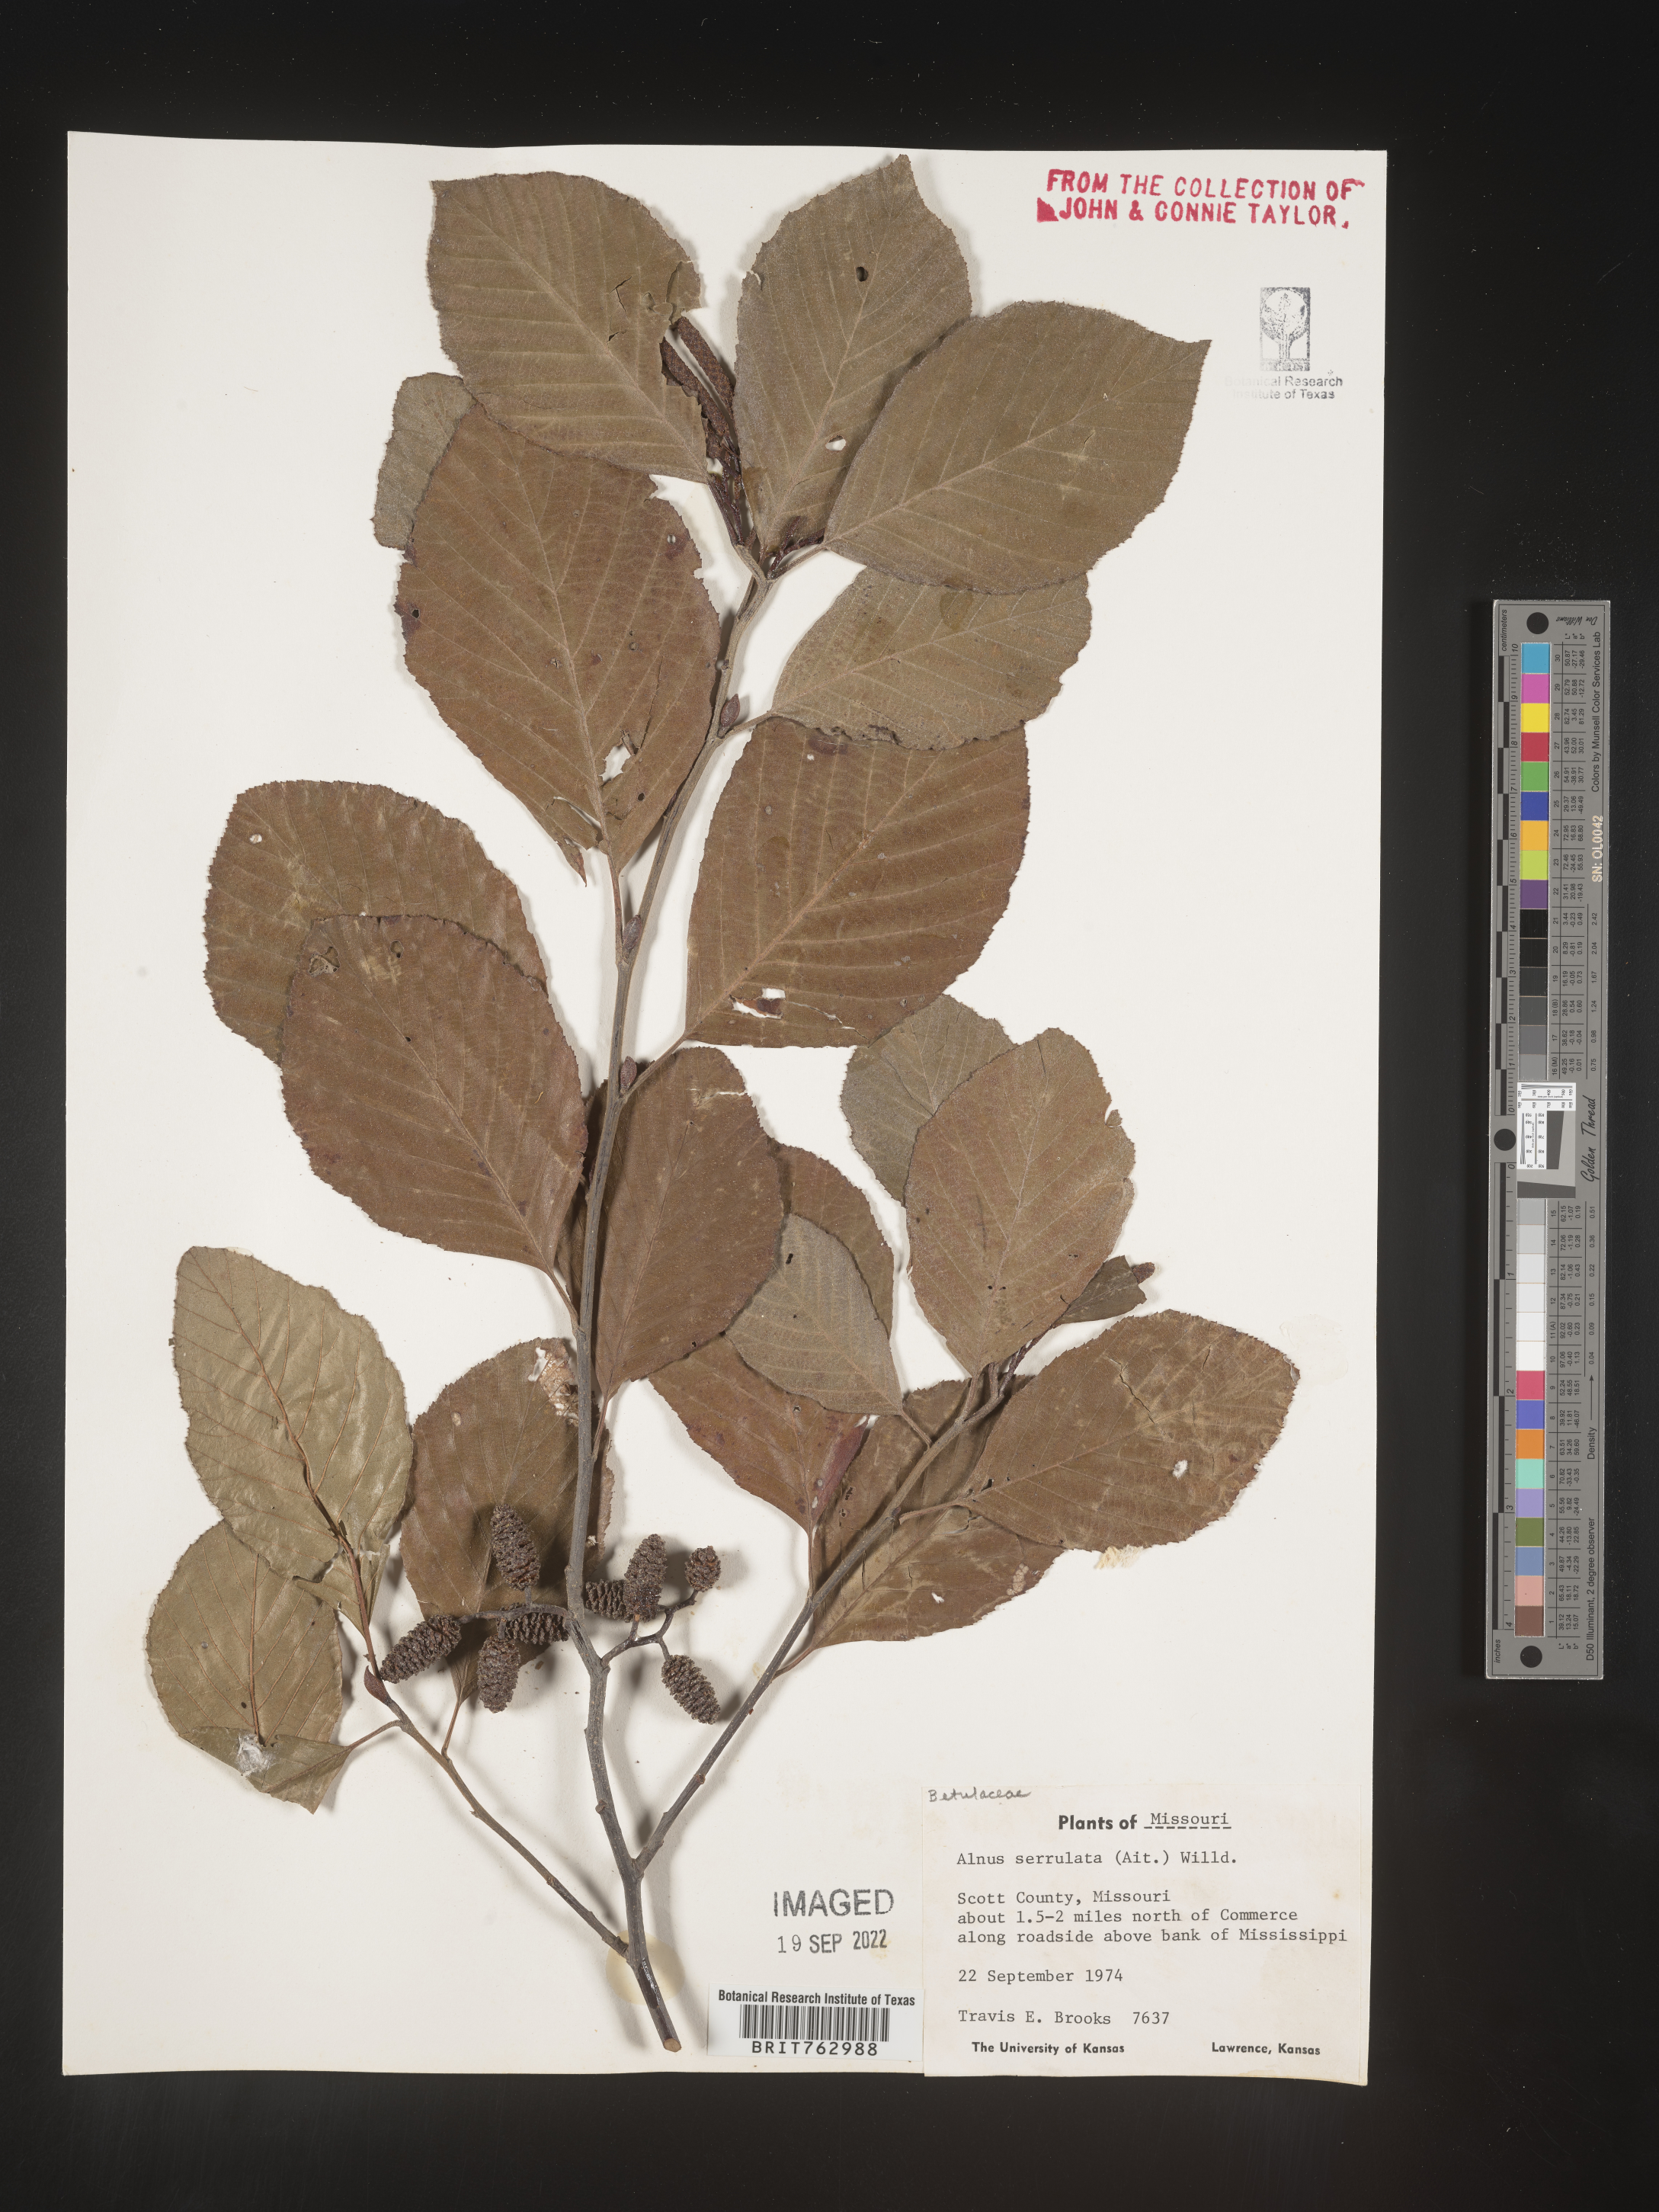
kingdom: Plantae
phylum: Tracheophyta
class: Magnoliopsida
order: Fagales
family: Betulaceae
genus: Alnus
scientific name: Alnus serrulata
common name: Hazel alder
